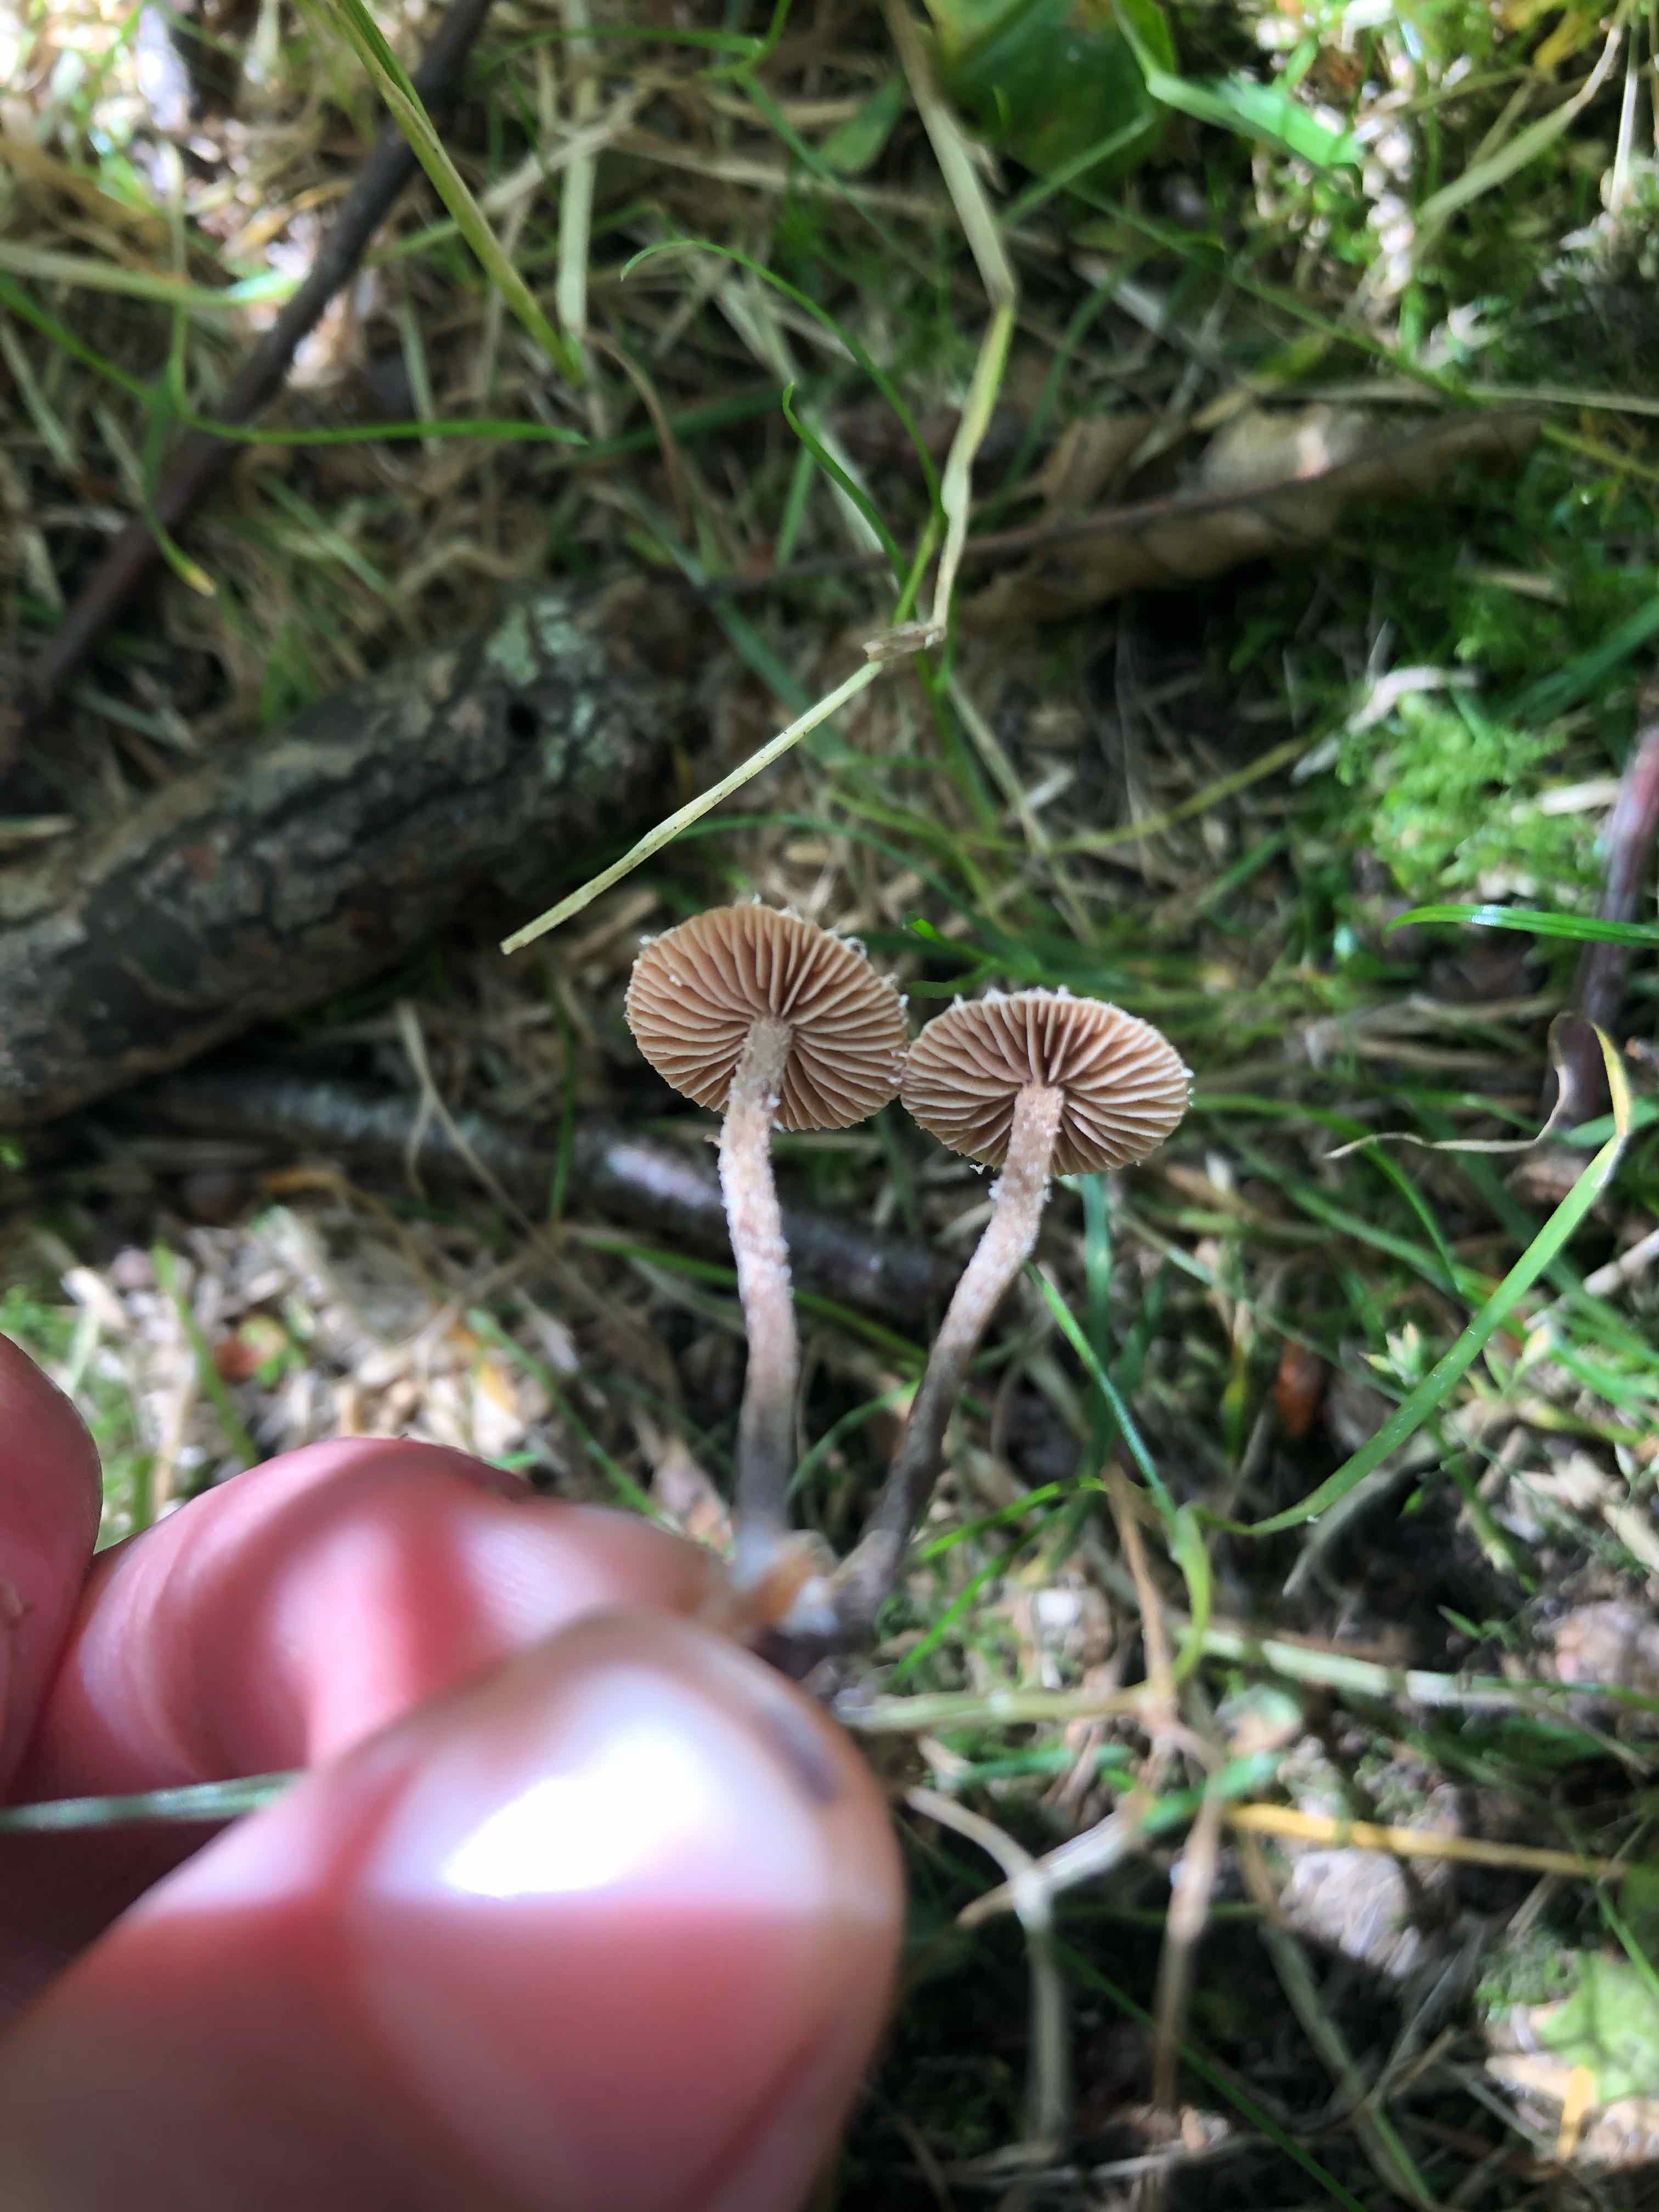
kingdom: Fungi
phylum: Basidiomycota
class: Agaricomycetes
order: Agaricales
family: Strophariaceae
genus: Deconica
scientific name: Deconica
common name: stråhat
